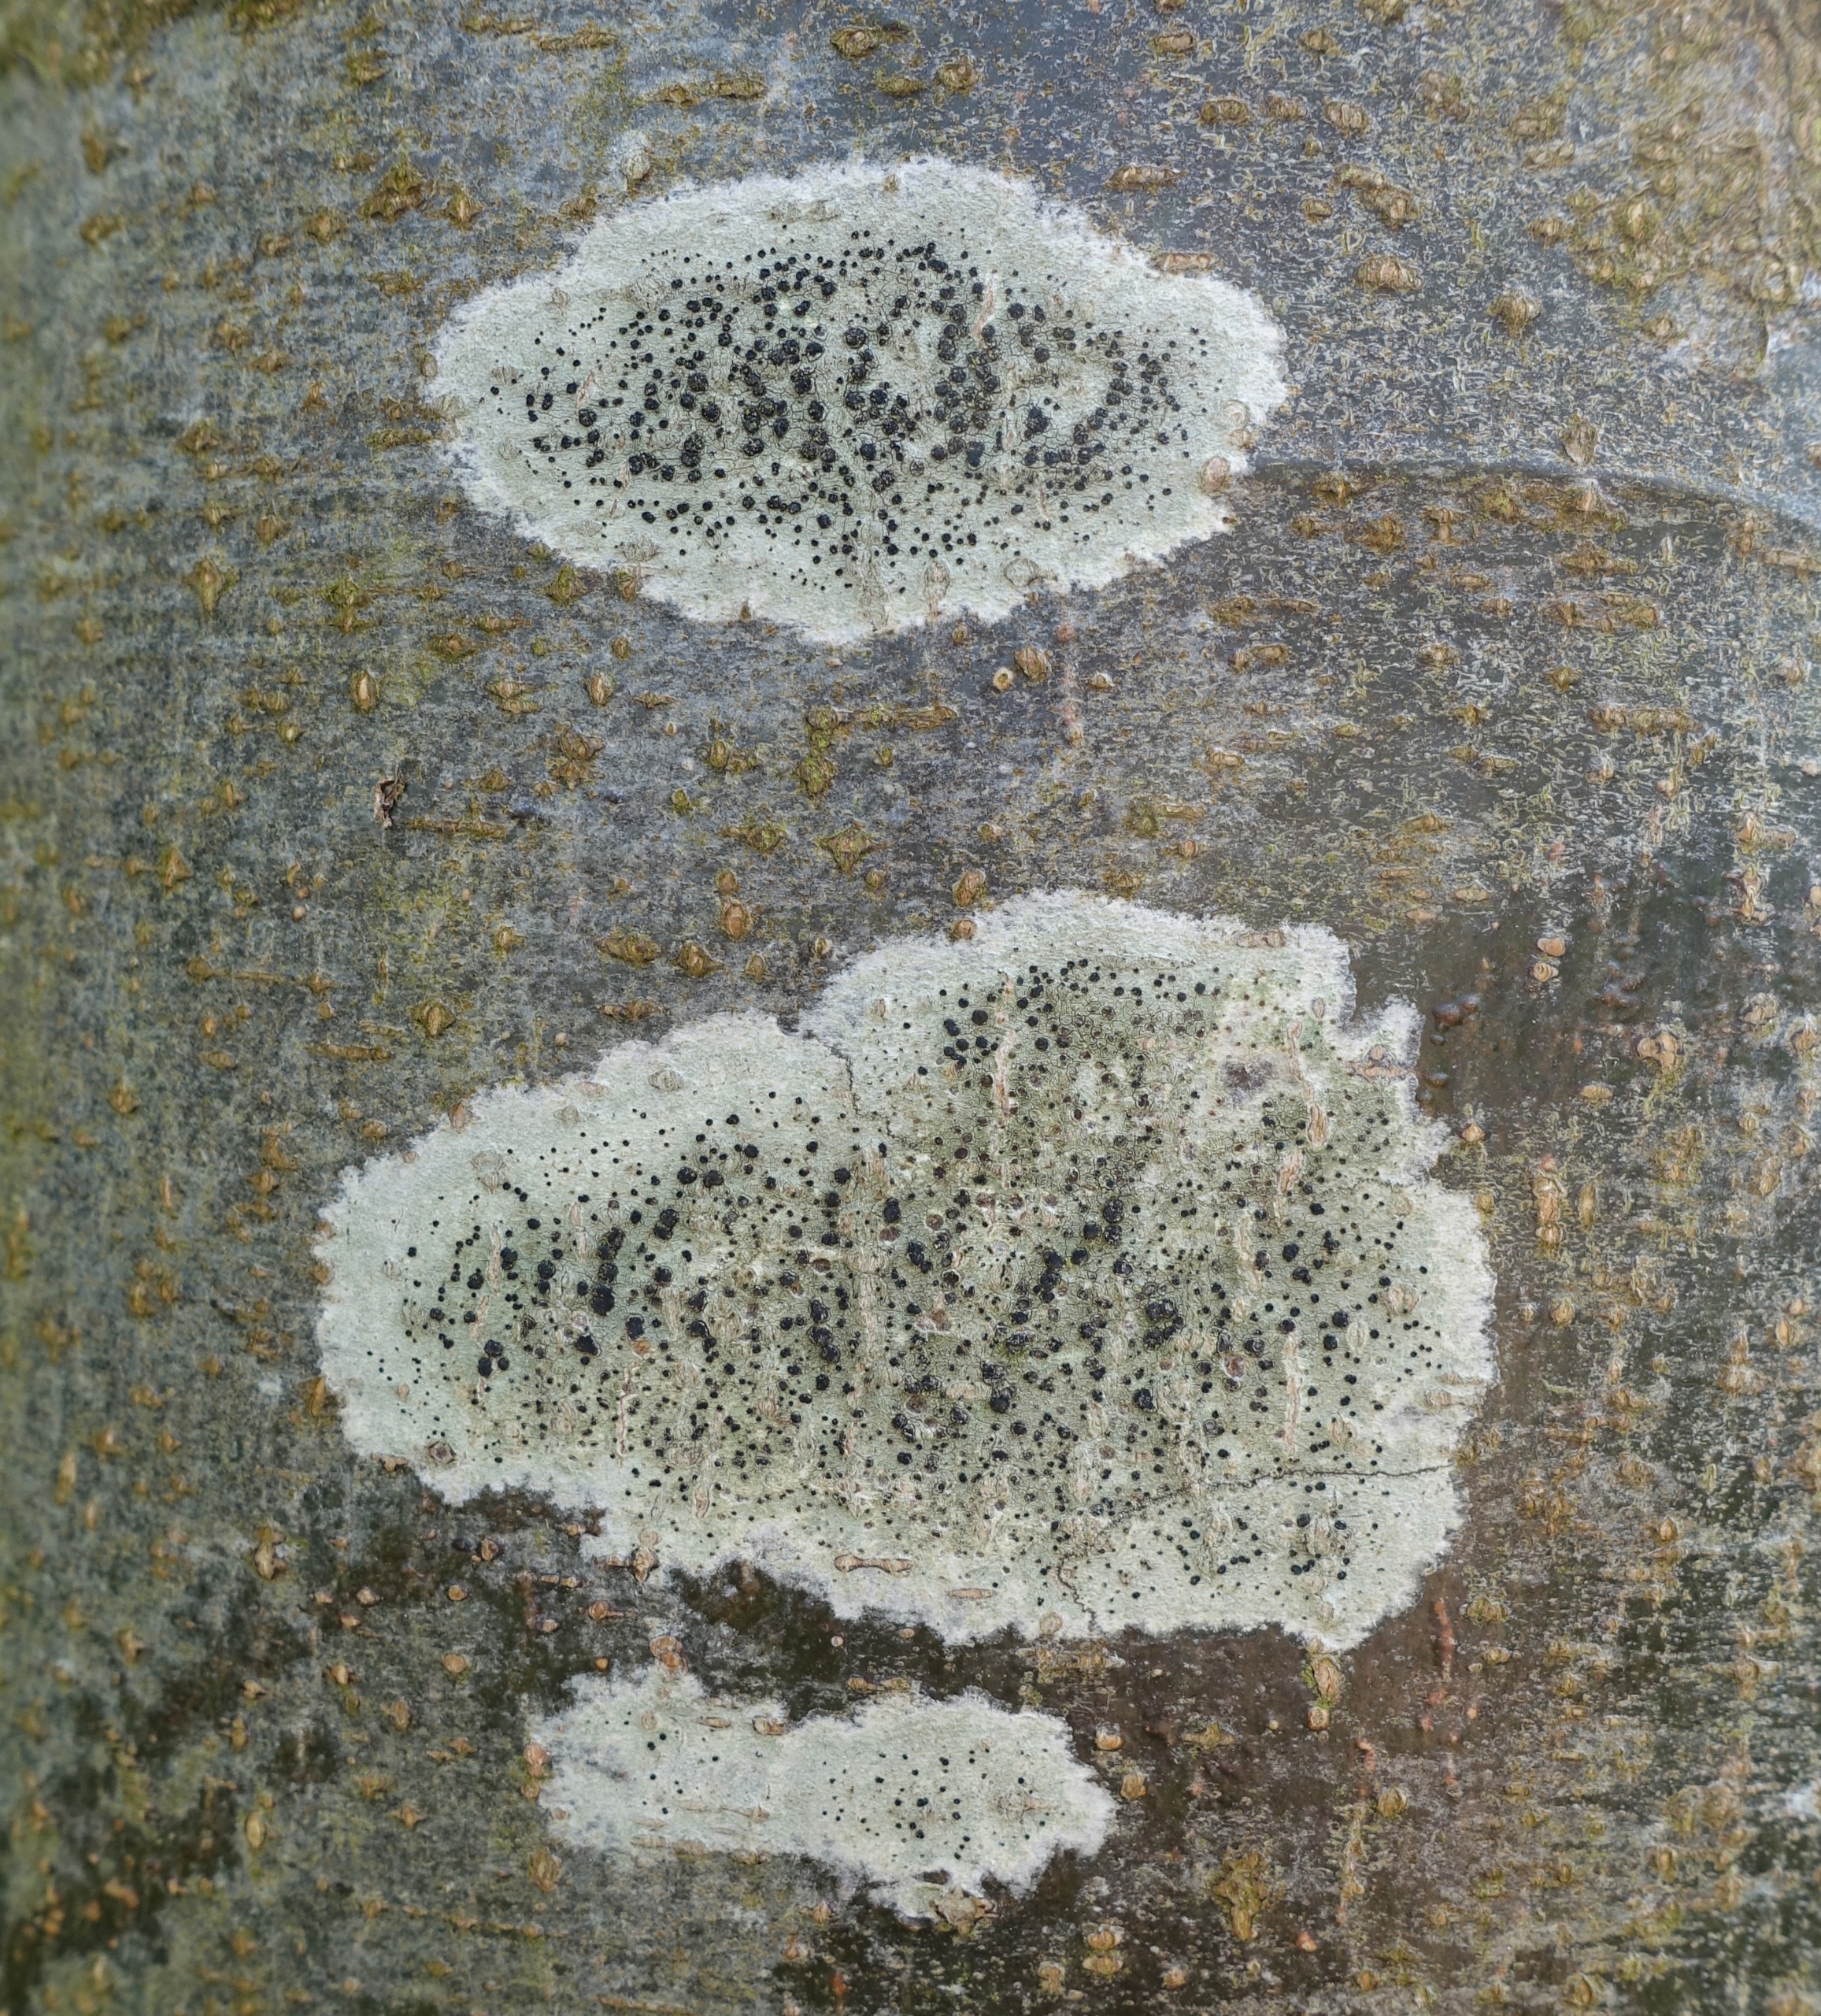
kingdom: Fungi
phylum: Ascomycota
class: Lecanoromycetes
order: Lecanorales
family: Lecanoraceae
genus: Lecidella
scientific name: Lecidella elaeochroma
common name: Grågrøn skivelav
